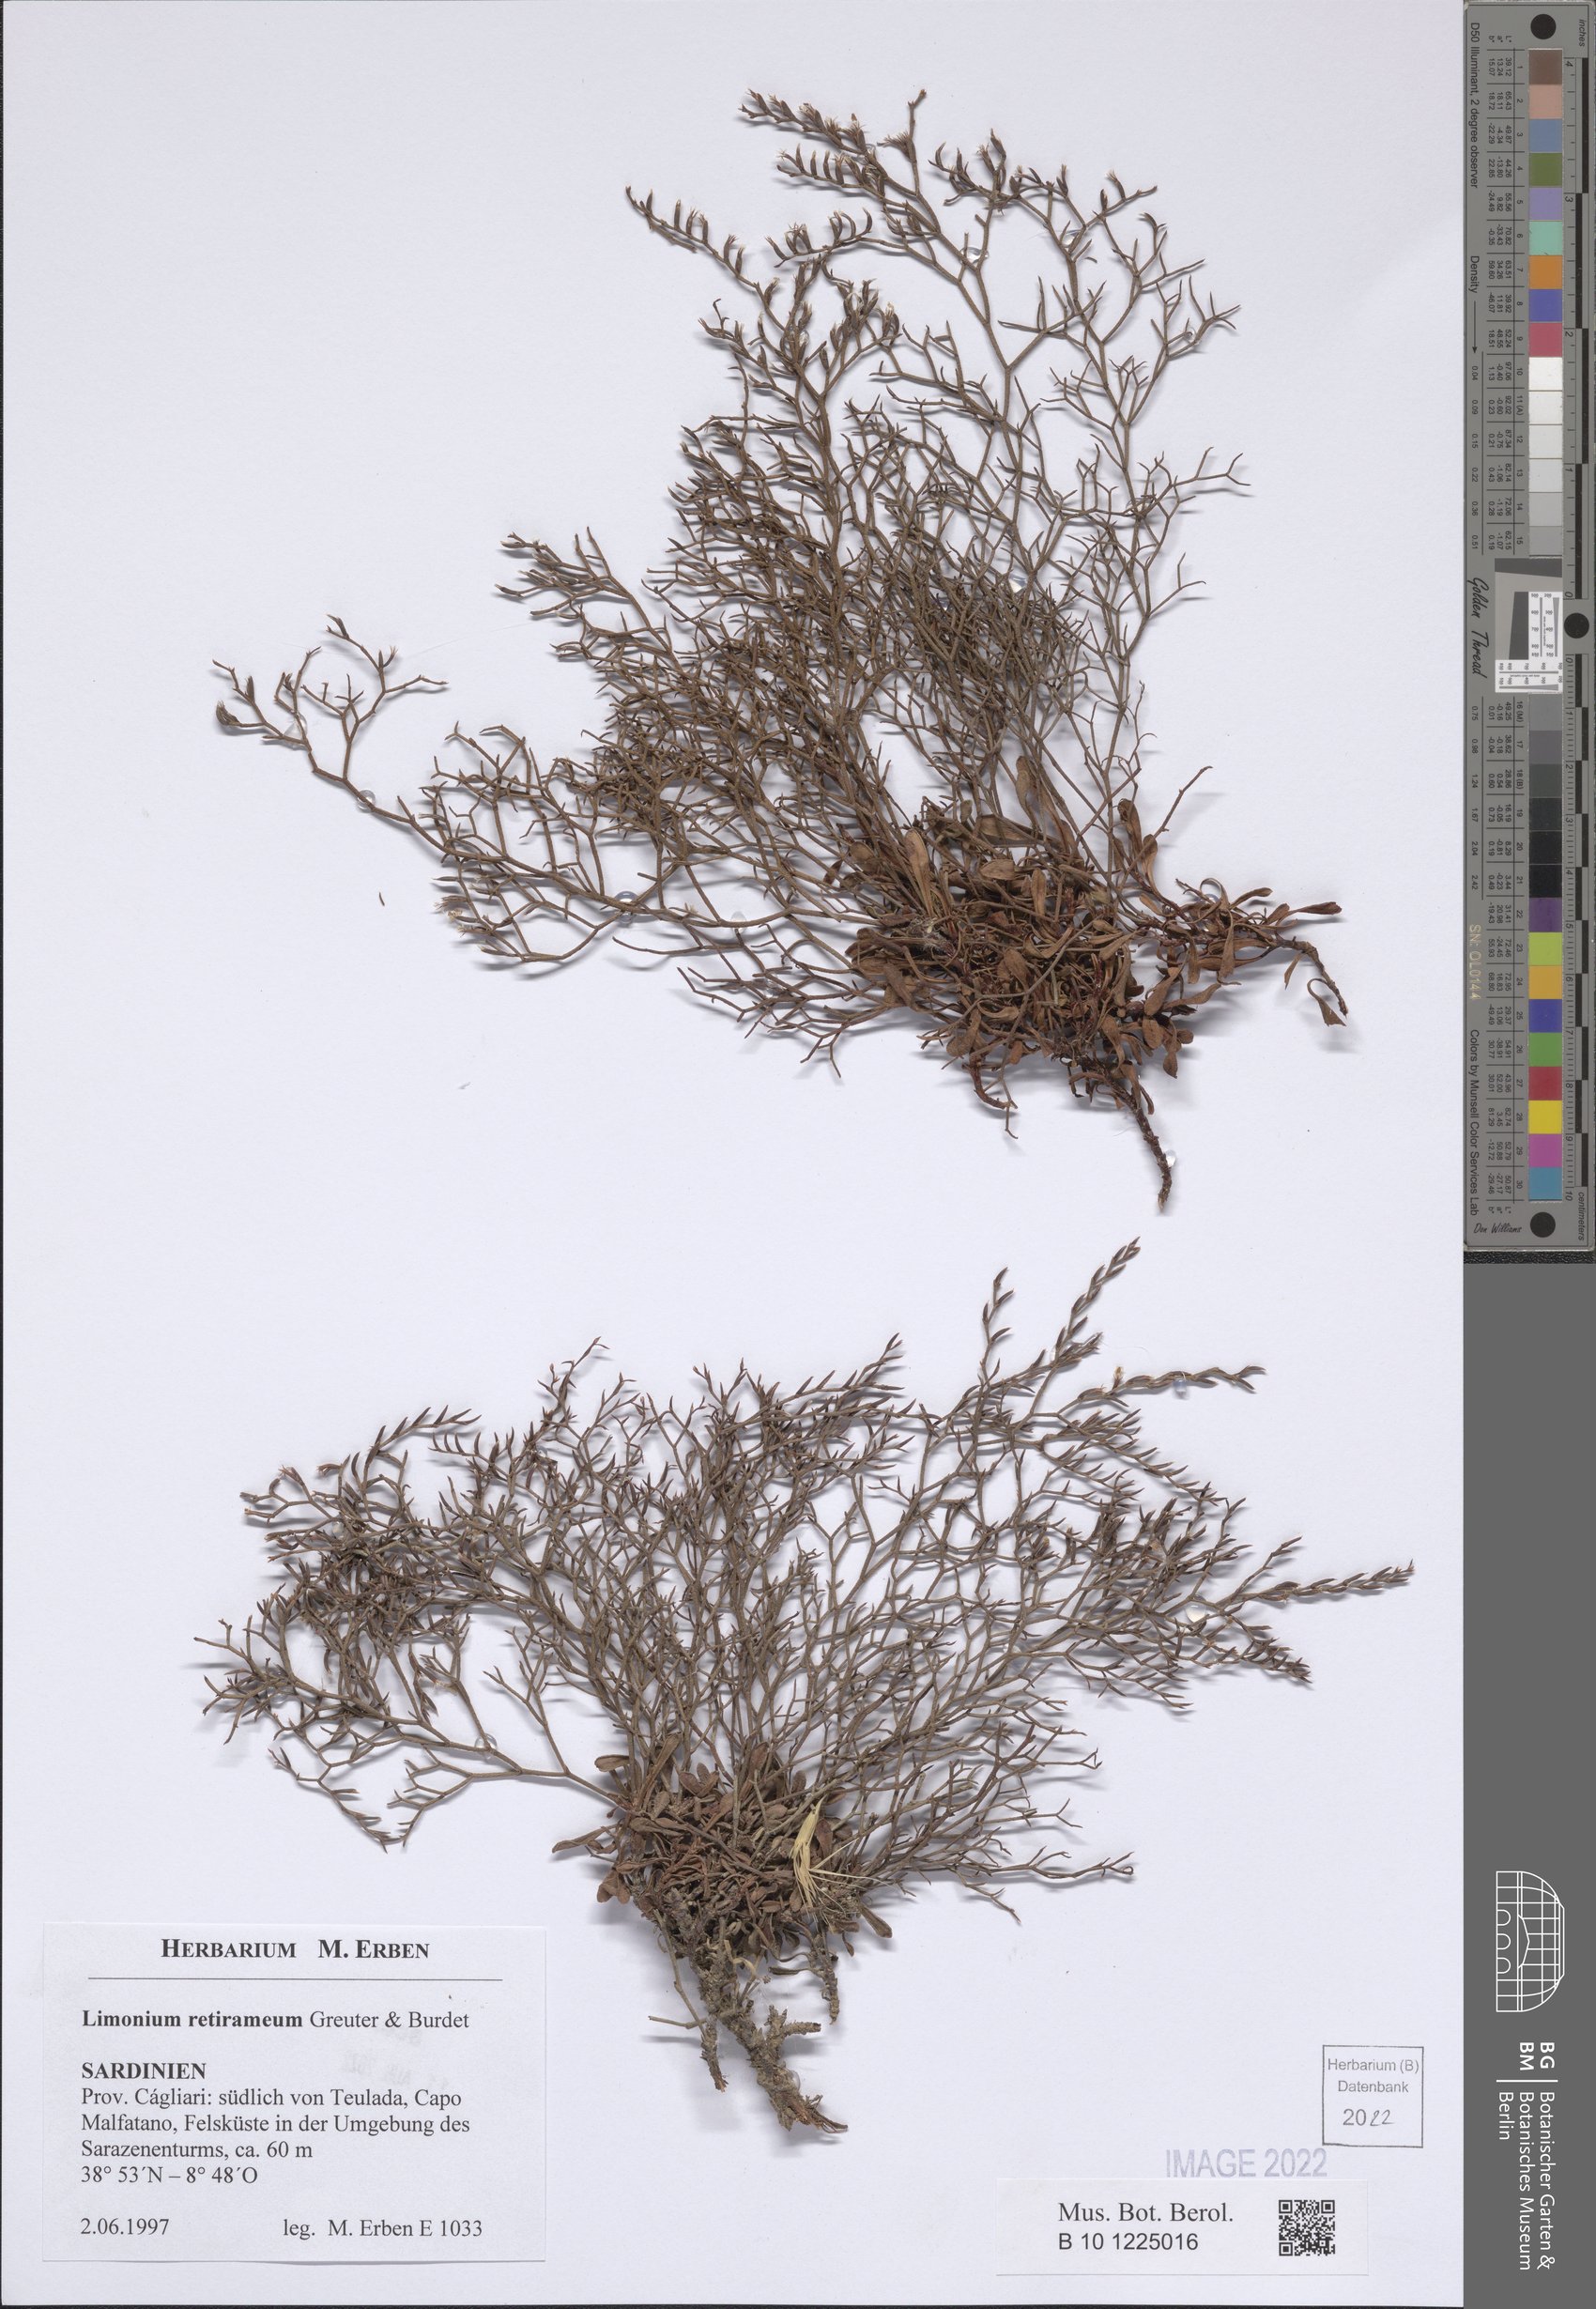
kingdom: Plantae
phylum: Tracheophyta
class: Magnoliopsida
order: Caryophyllales
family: Plumbaginaceae
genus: Limonium
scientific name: Limonium retirameum
